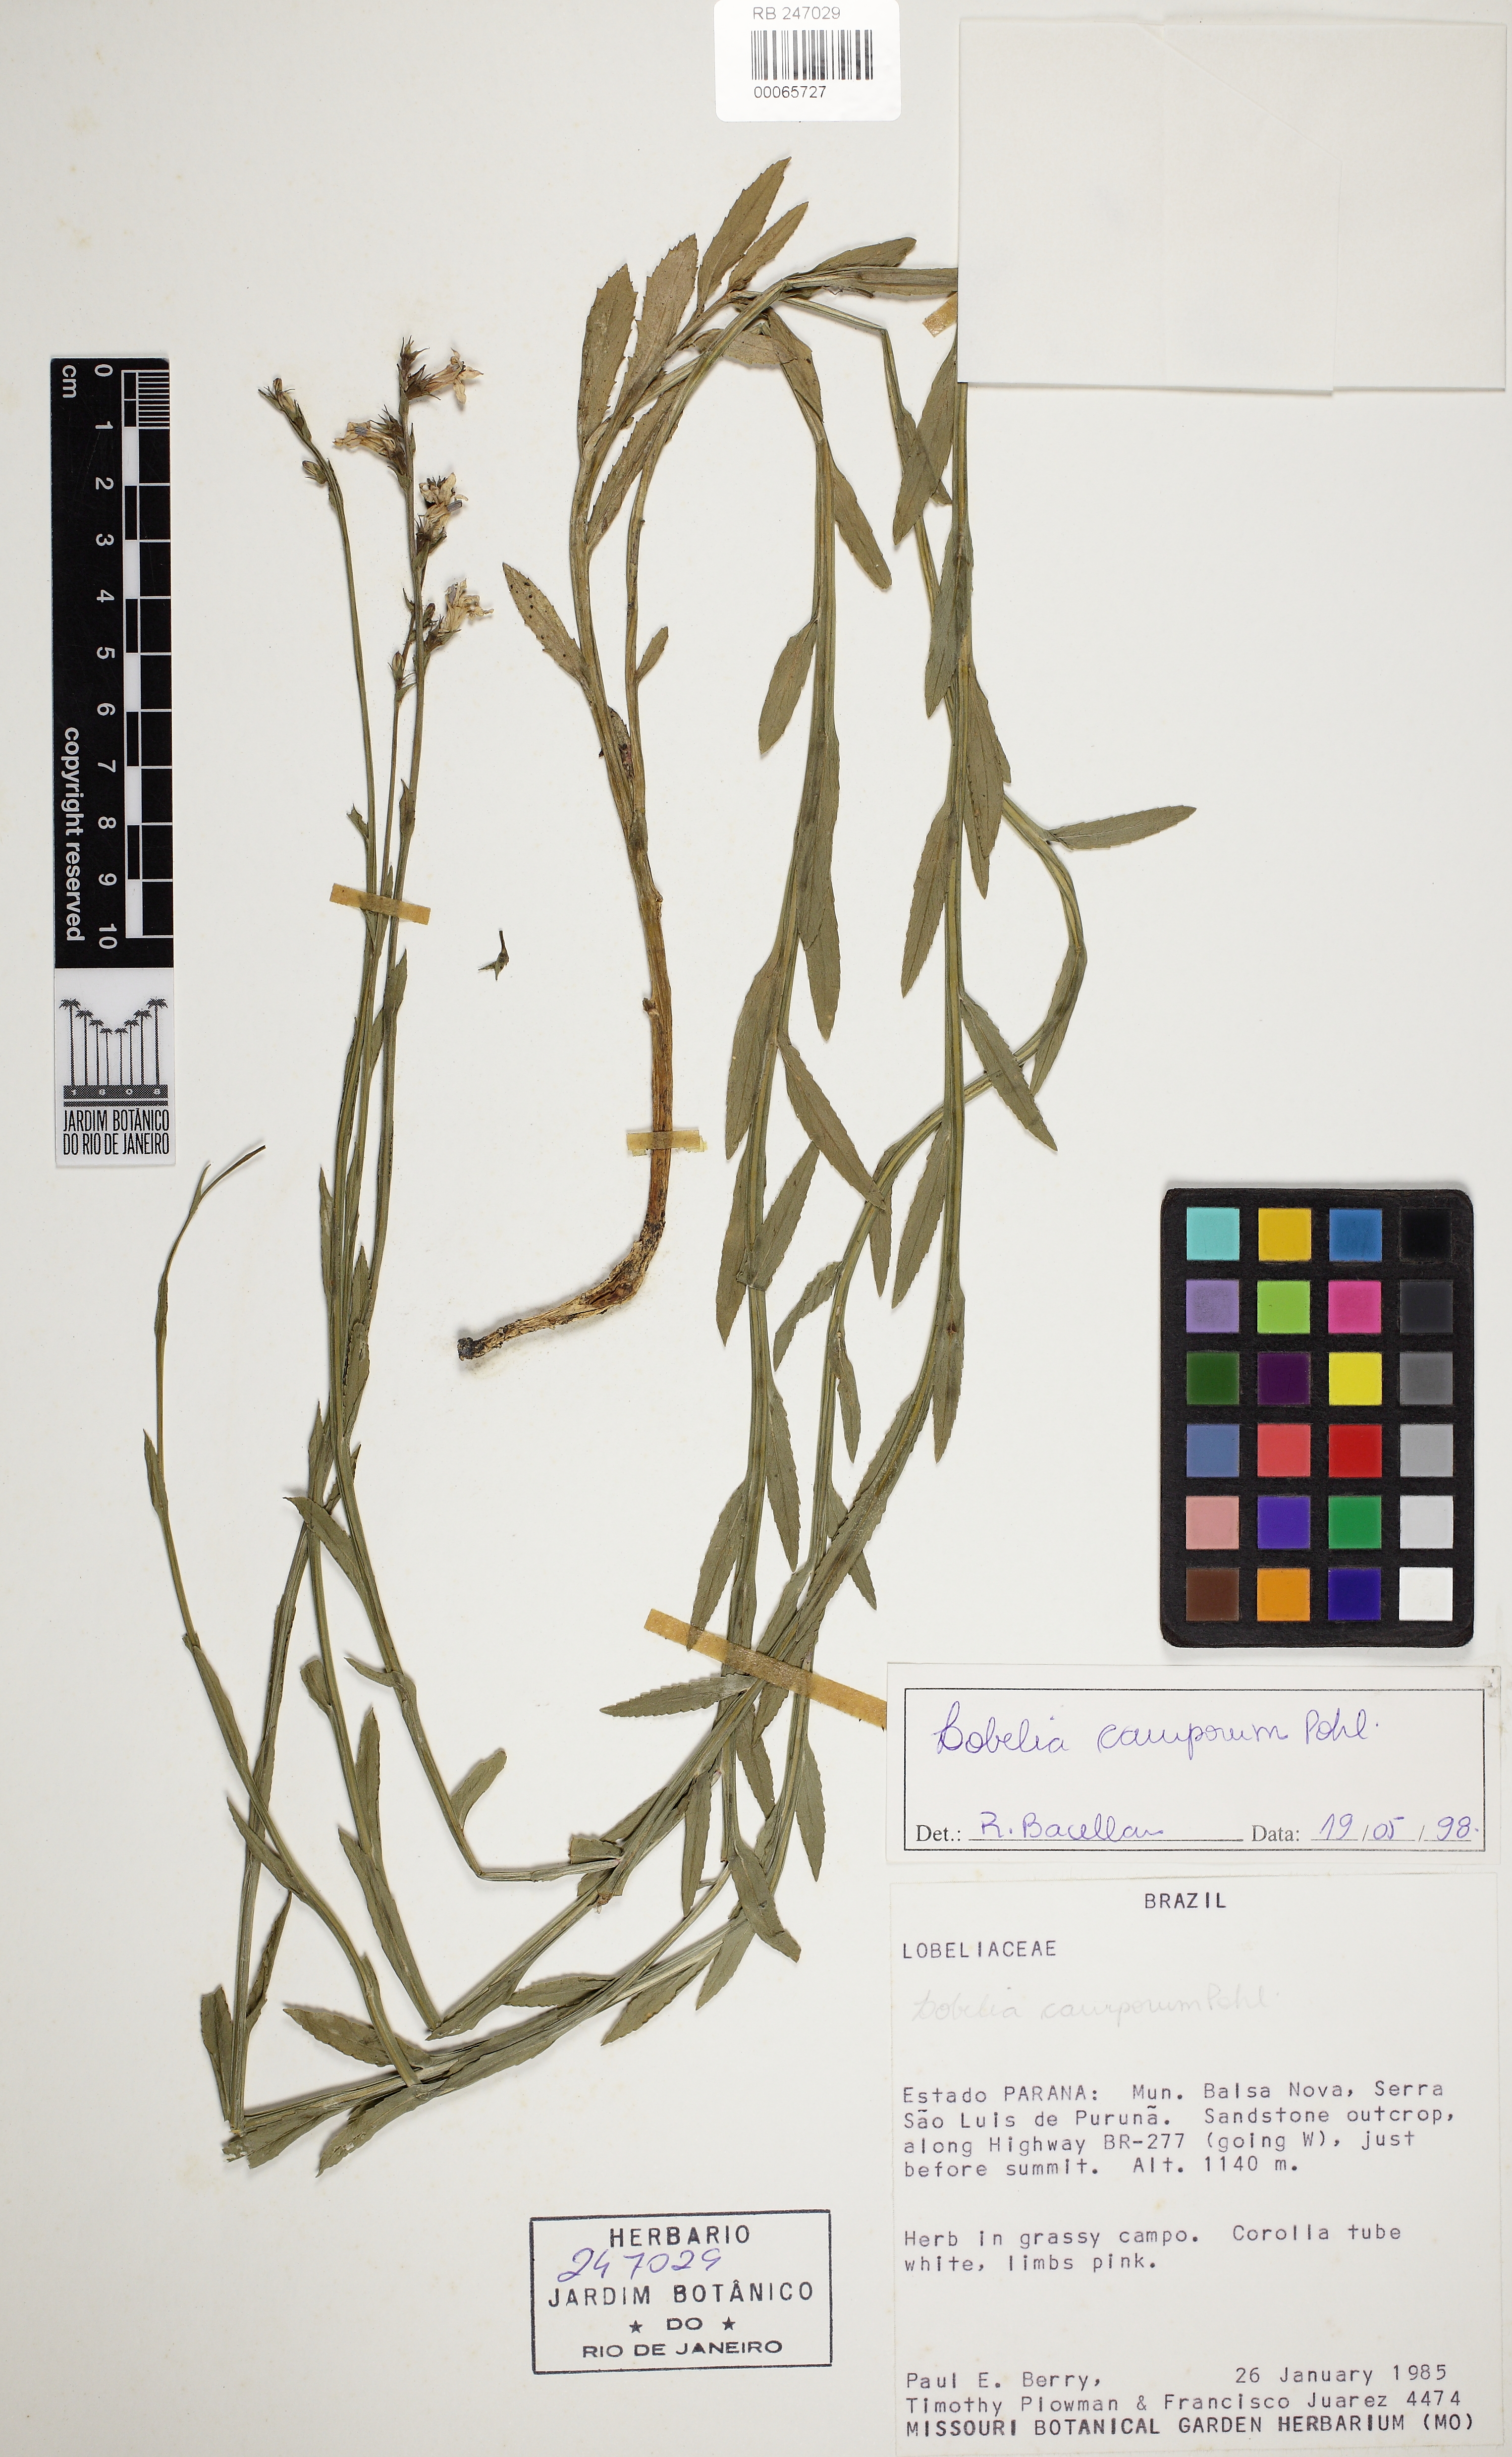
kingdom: Plantae
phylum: Tracheophyta
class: Magnoliopsida
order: Asterales
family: Campanulaceae
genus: Lobelia
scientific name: Lobelia camporum
